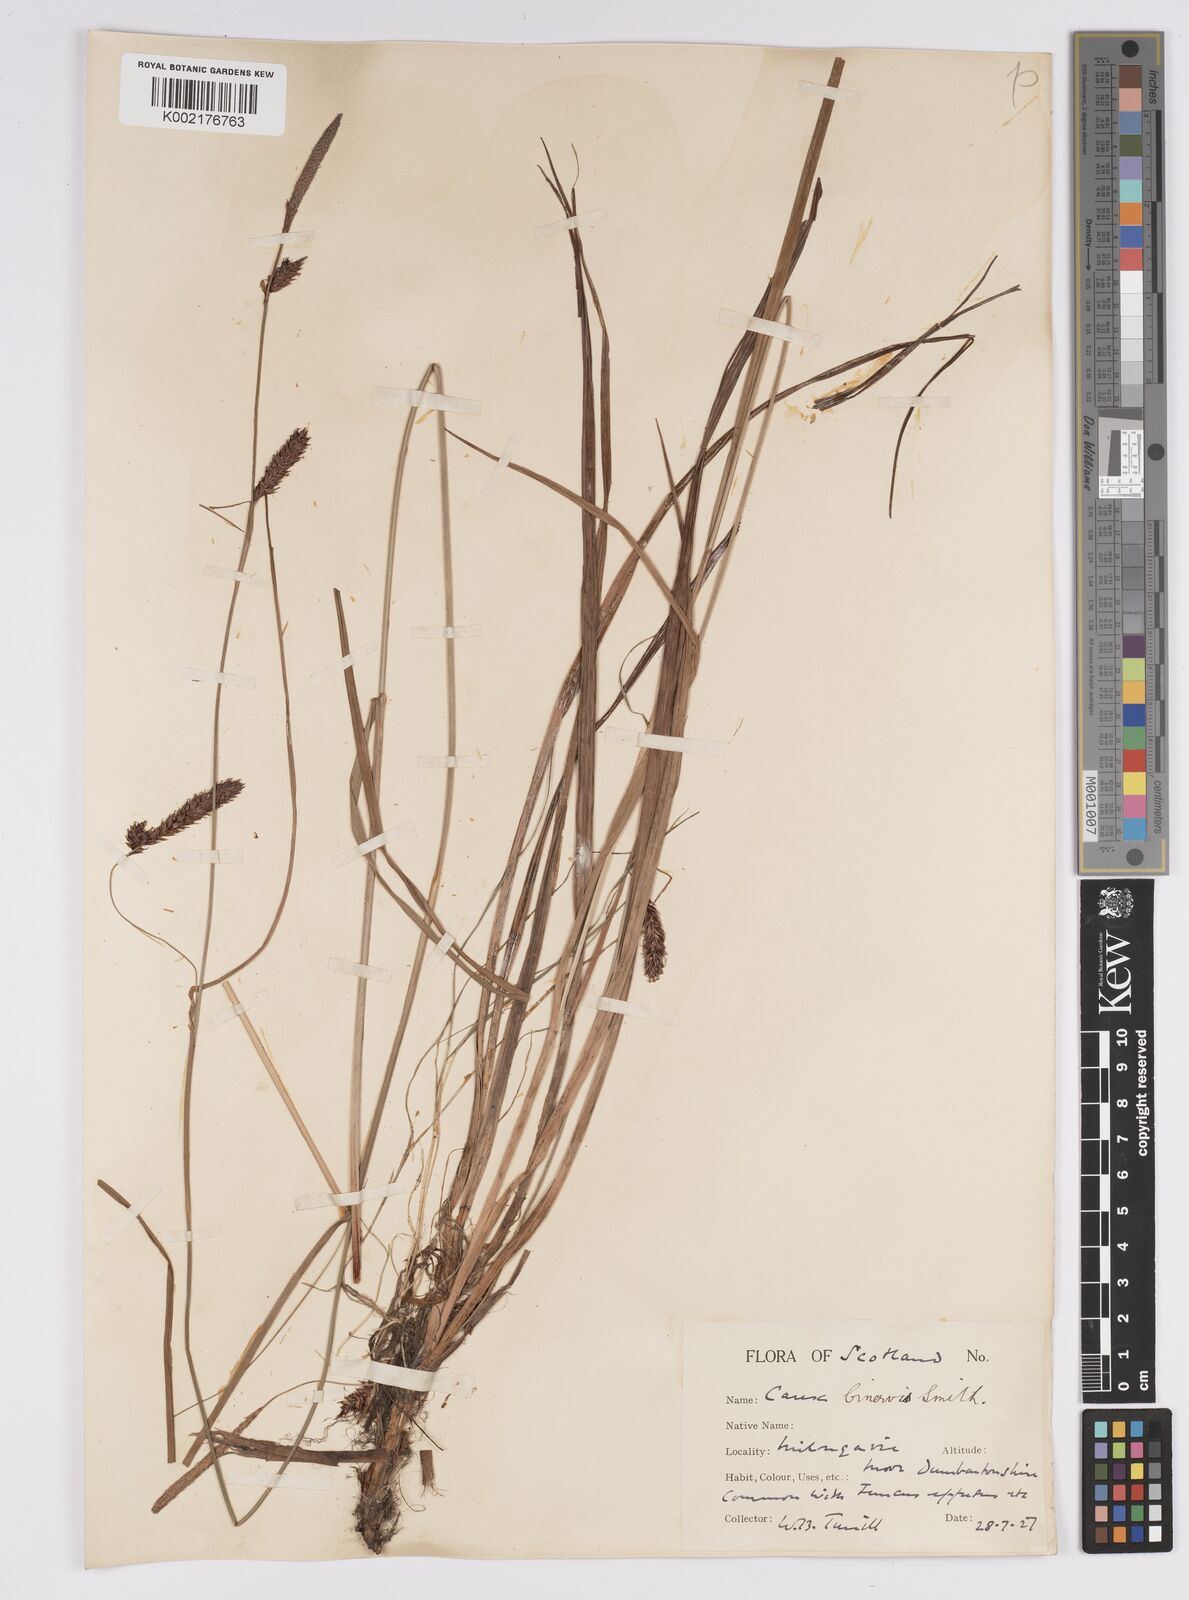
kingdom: Plantae
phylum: Tracheophyta
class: Liliopsida
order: Poales
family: Cyperaceae
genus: Carex
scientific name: Carex binervis
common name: Green-ribbed sedge
